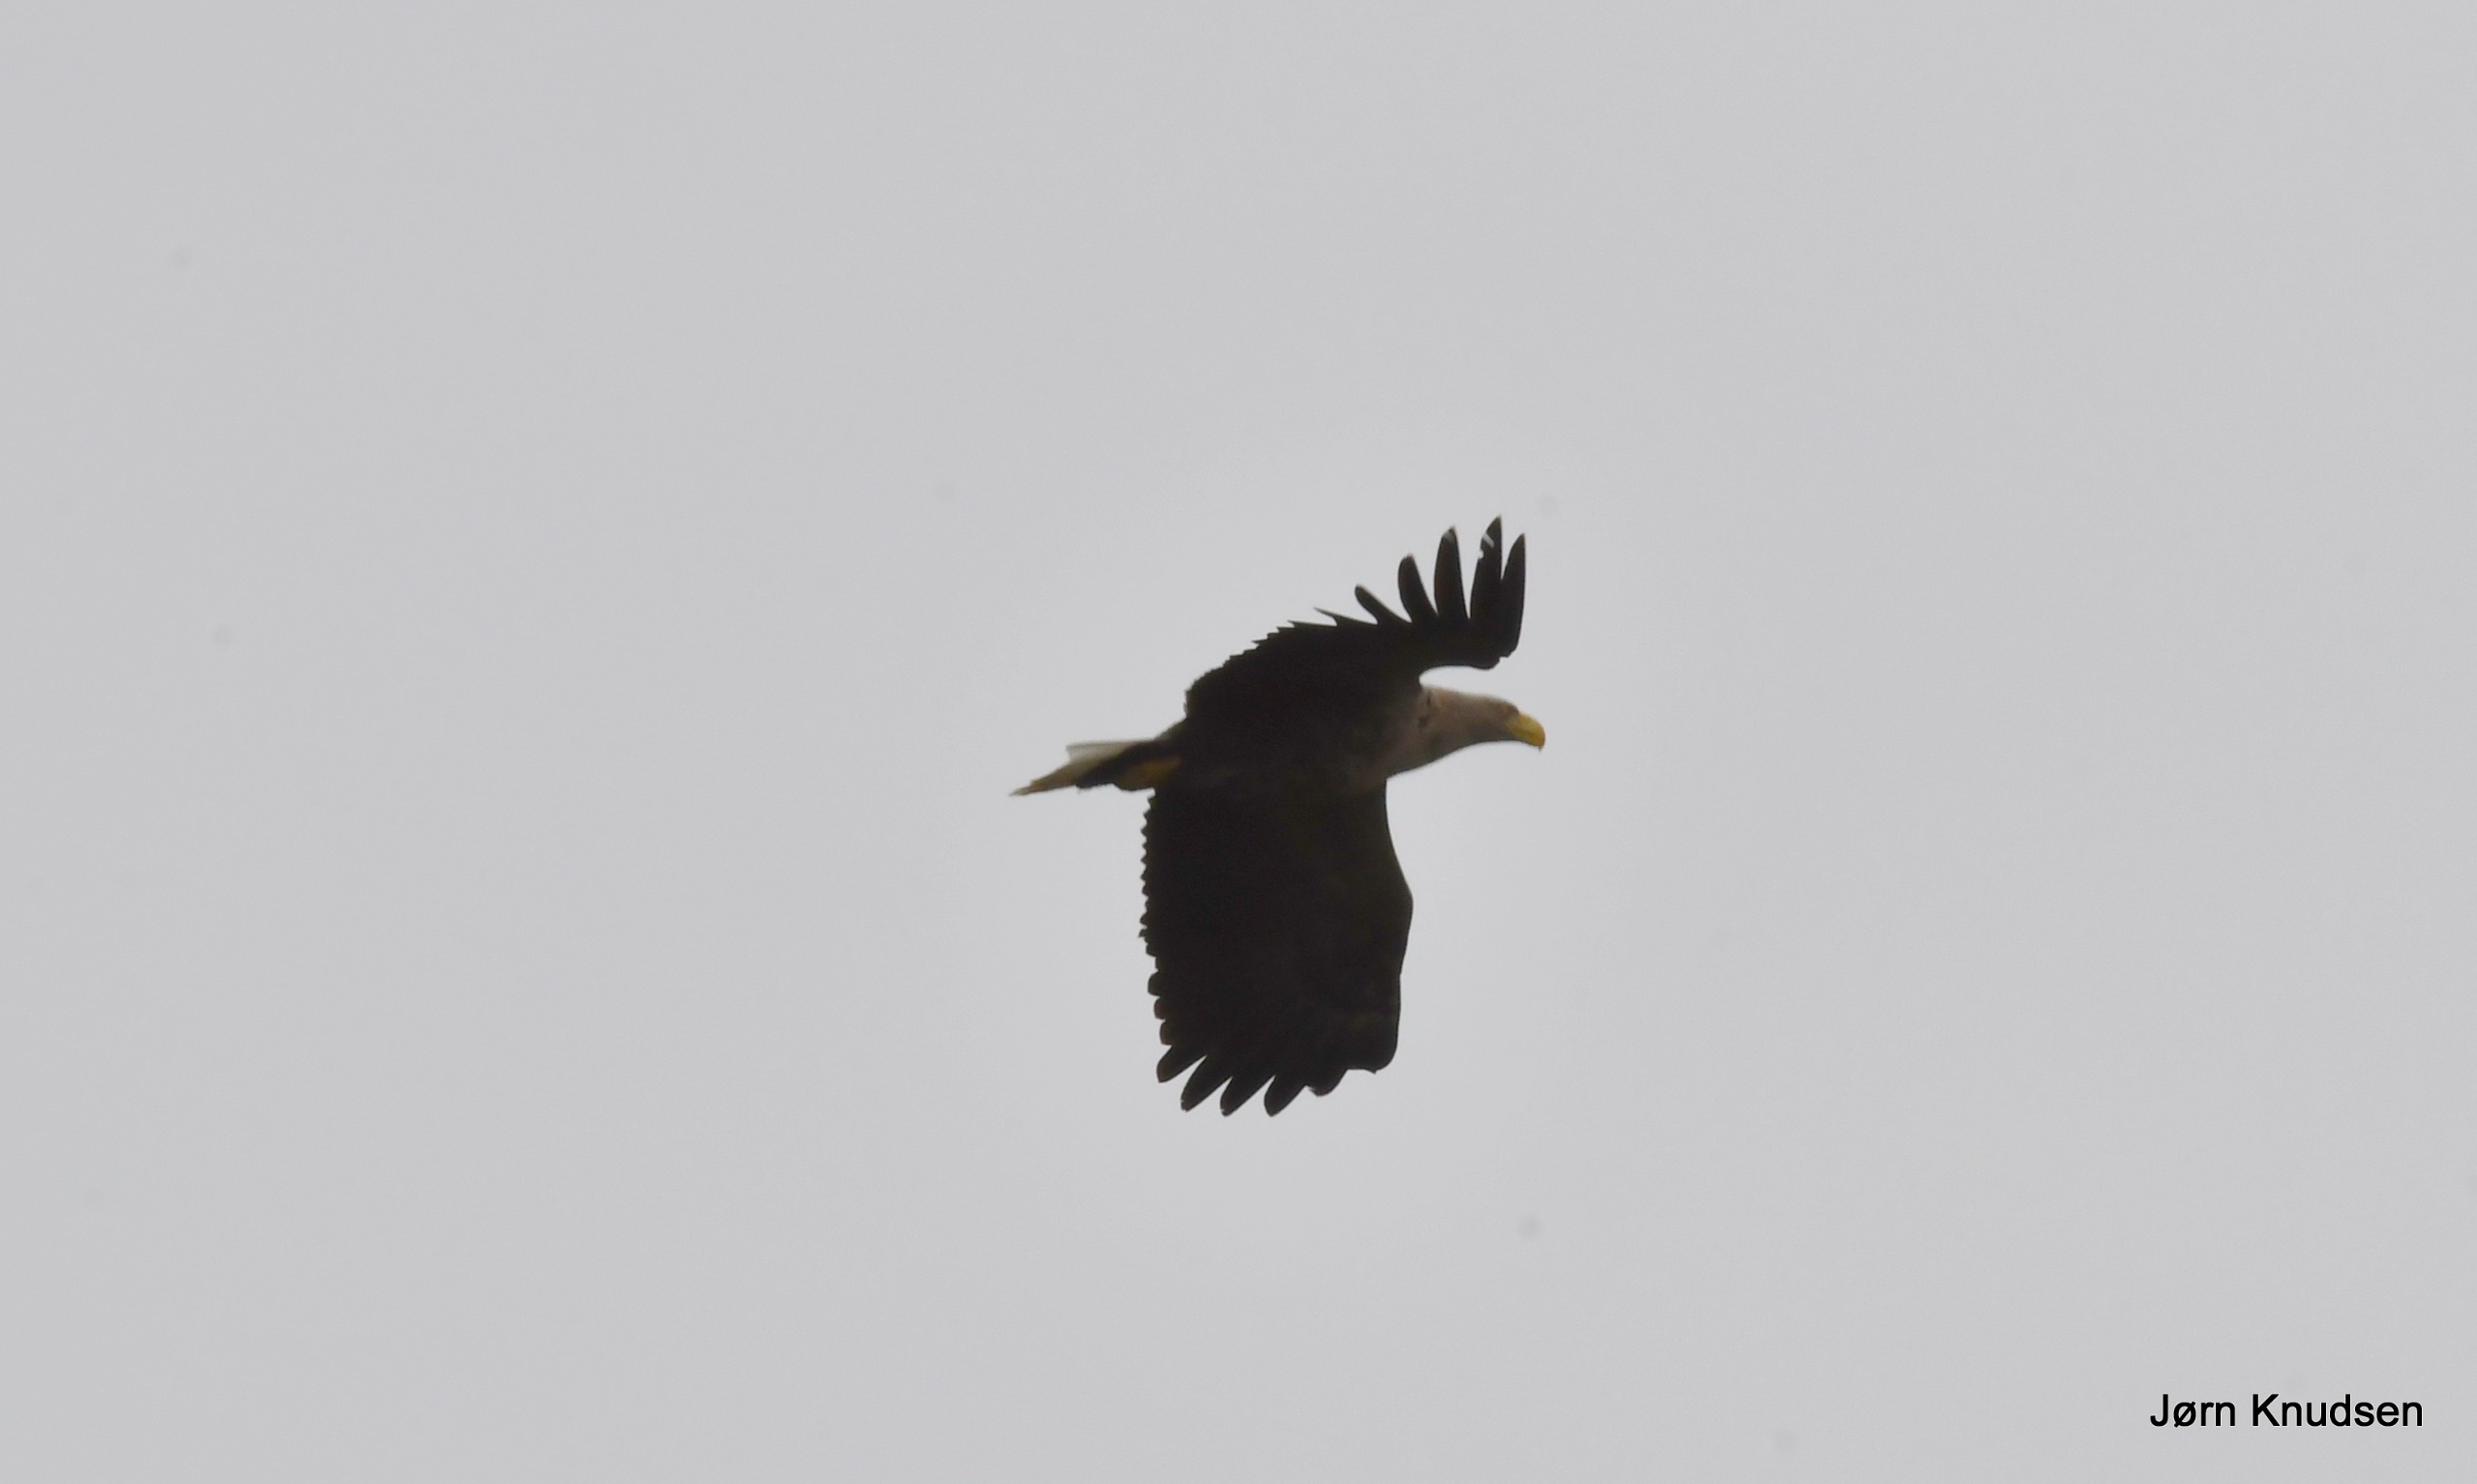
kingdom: Animalia
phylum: Chordata
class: Aves
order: Accipitriformes
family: Accipitridae
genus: Haliaeetus
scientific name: Haliaeetus albicilla
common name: Havørn
